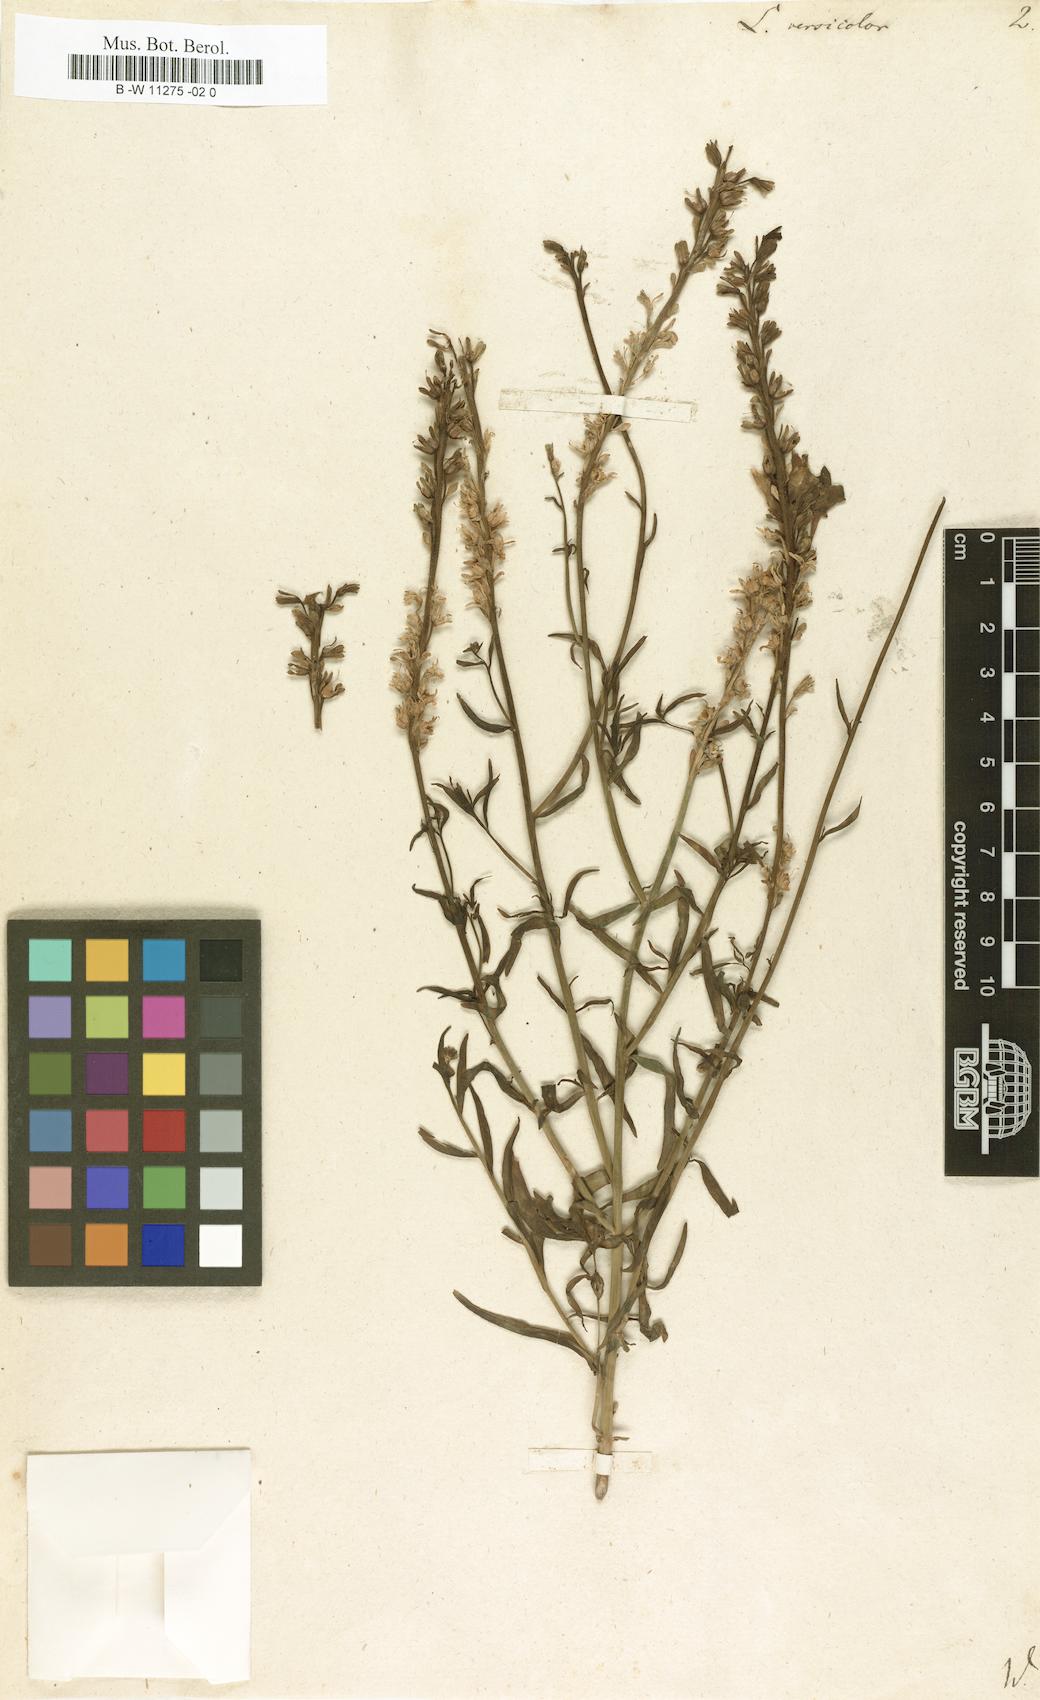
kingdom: Plantae
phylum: Tracheophyta
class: Magnoliopsida
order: Lamiales
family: Plantaginaceae
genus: Linaria
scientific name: Linaria
